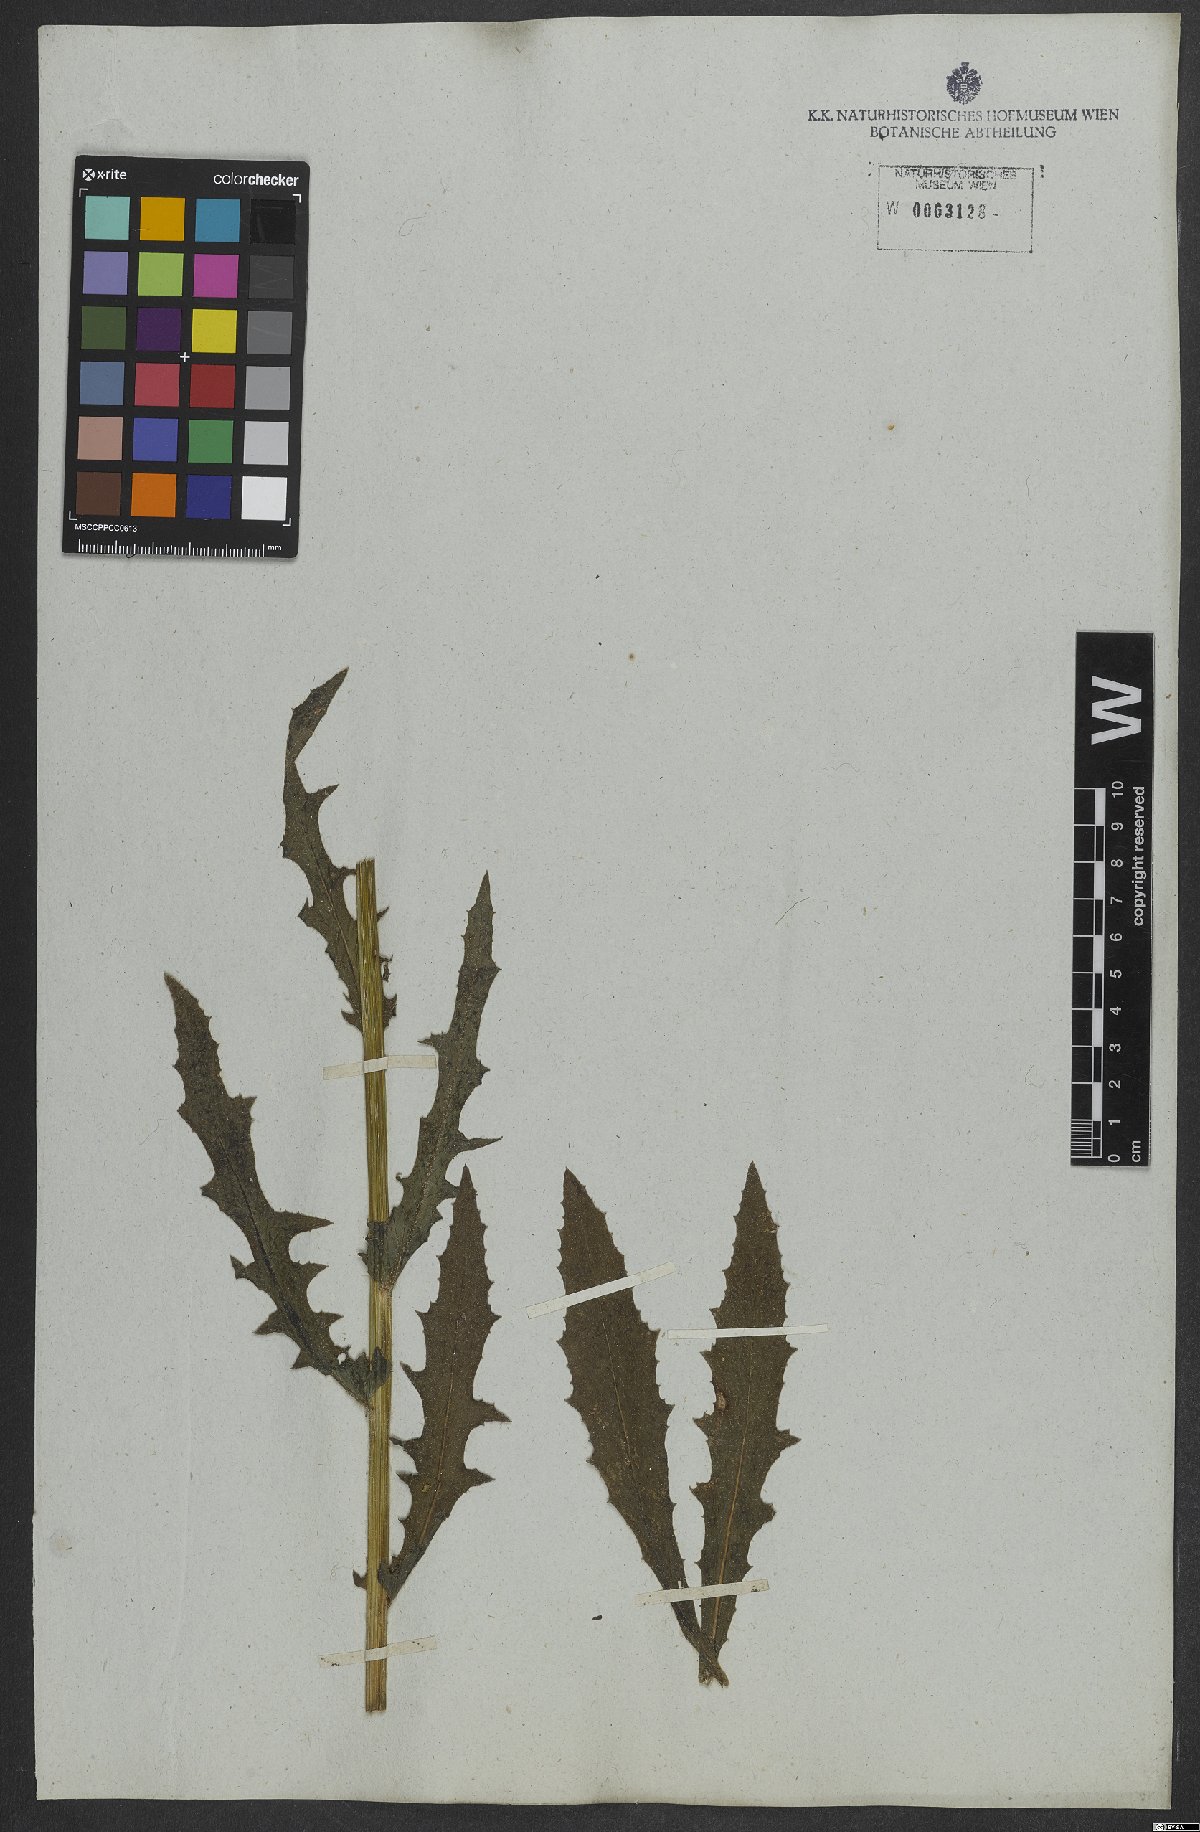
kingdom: Plantae
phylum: Tracheophyta
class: Magnoliopsida
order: Asterales
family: Asteraceae
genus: Erechtites
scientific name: Erechtites hieraciifolius
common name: American burnweed
